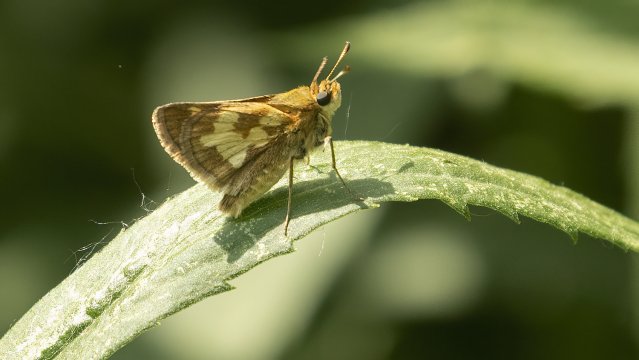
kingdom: Animalia
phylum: Arthropoda
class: Insecta
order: Lepidoptera
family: Hesperiidae
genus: Polites
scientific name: Polites coras
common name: Peck's Skipper
